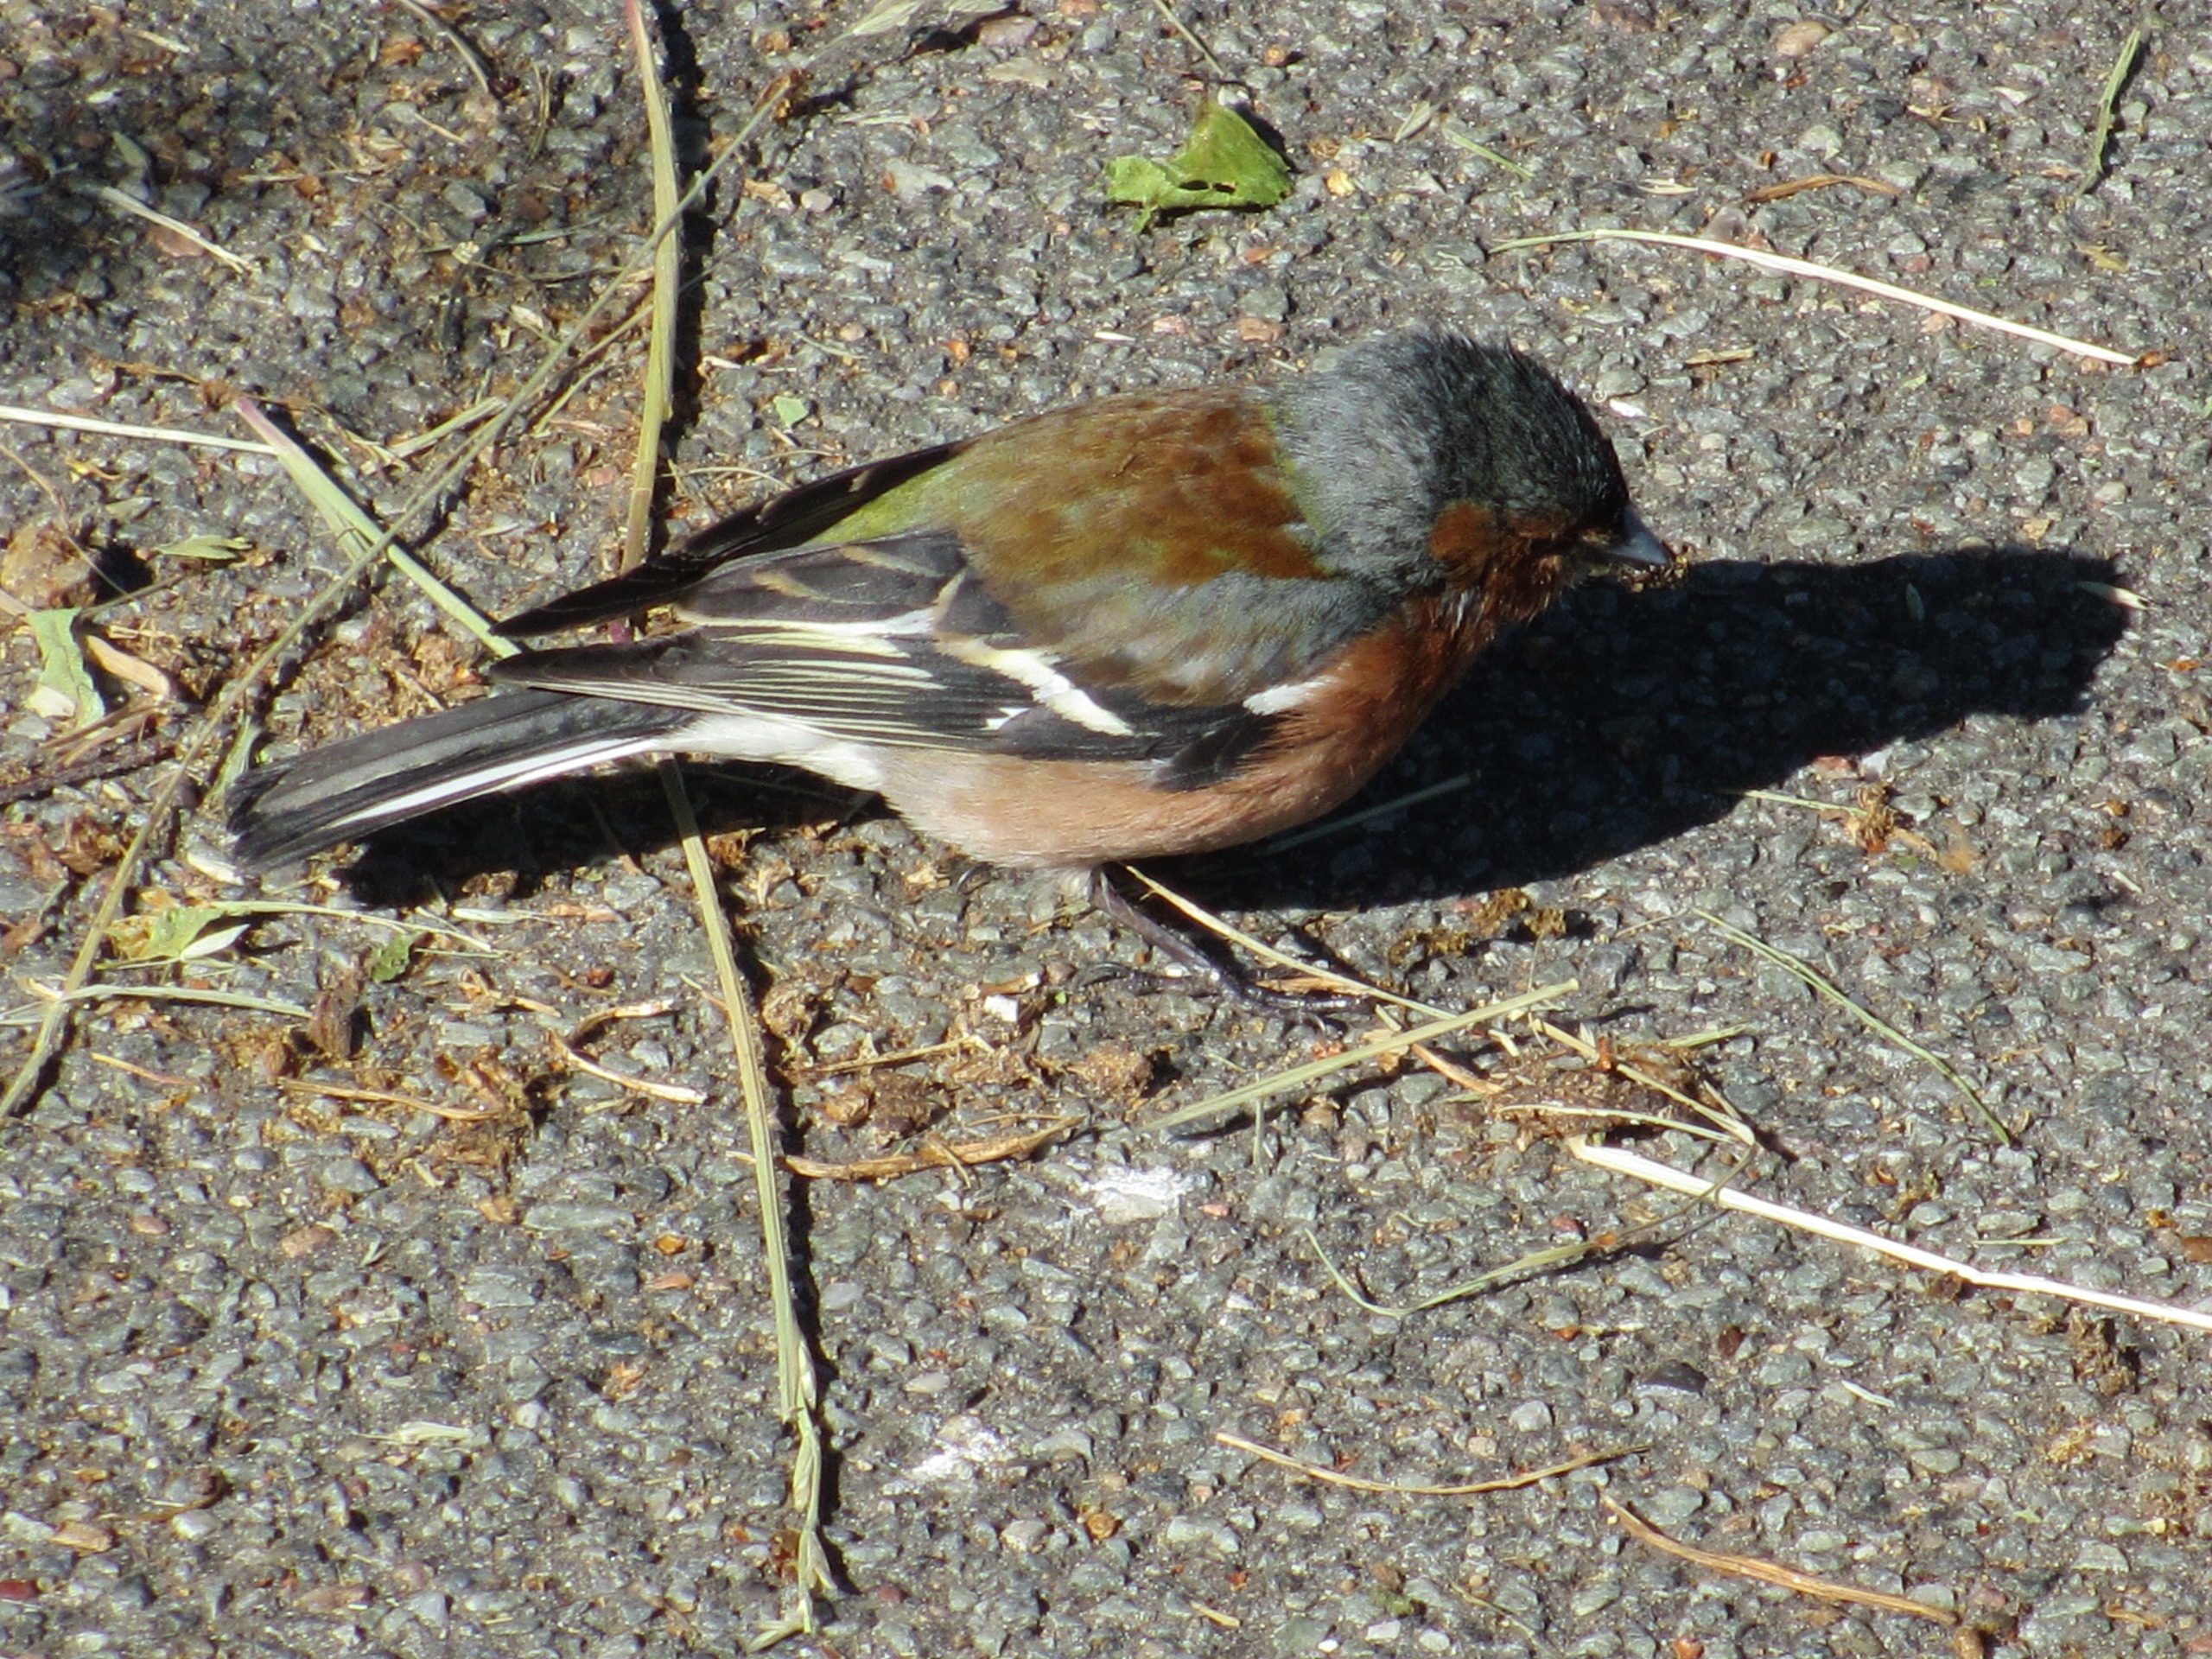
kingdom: Animalia
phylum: Chordata
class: Aves
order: Passeriformes
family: Fringillidae
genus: Fringilla
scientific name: Fringilla coelebs
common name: Bogfinke
